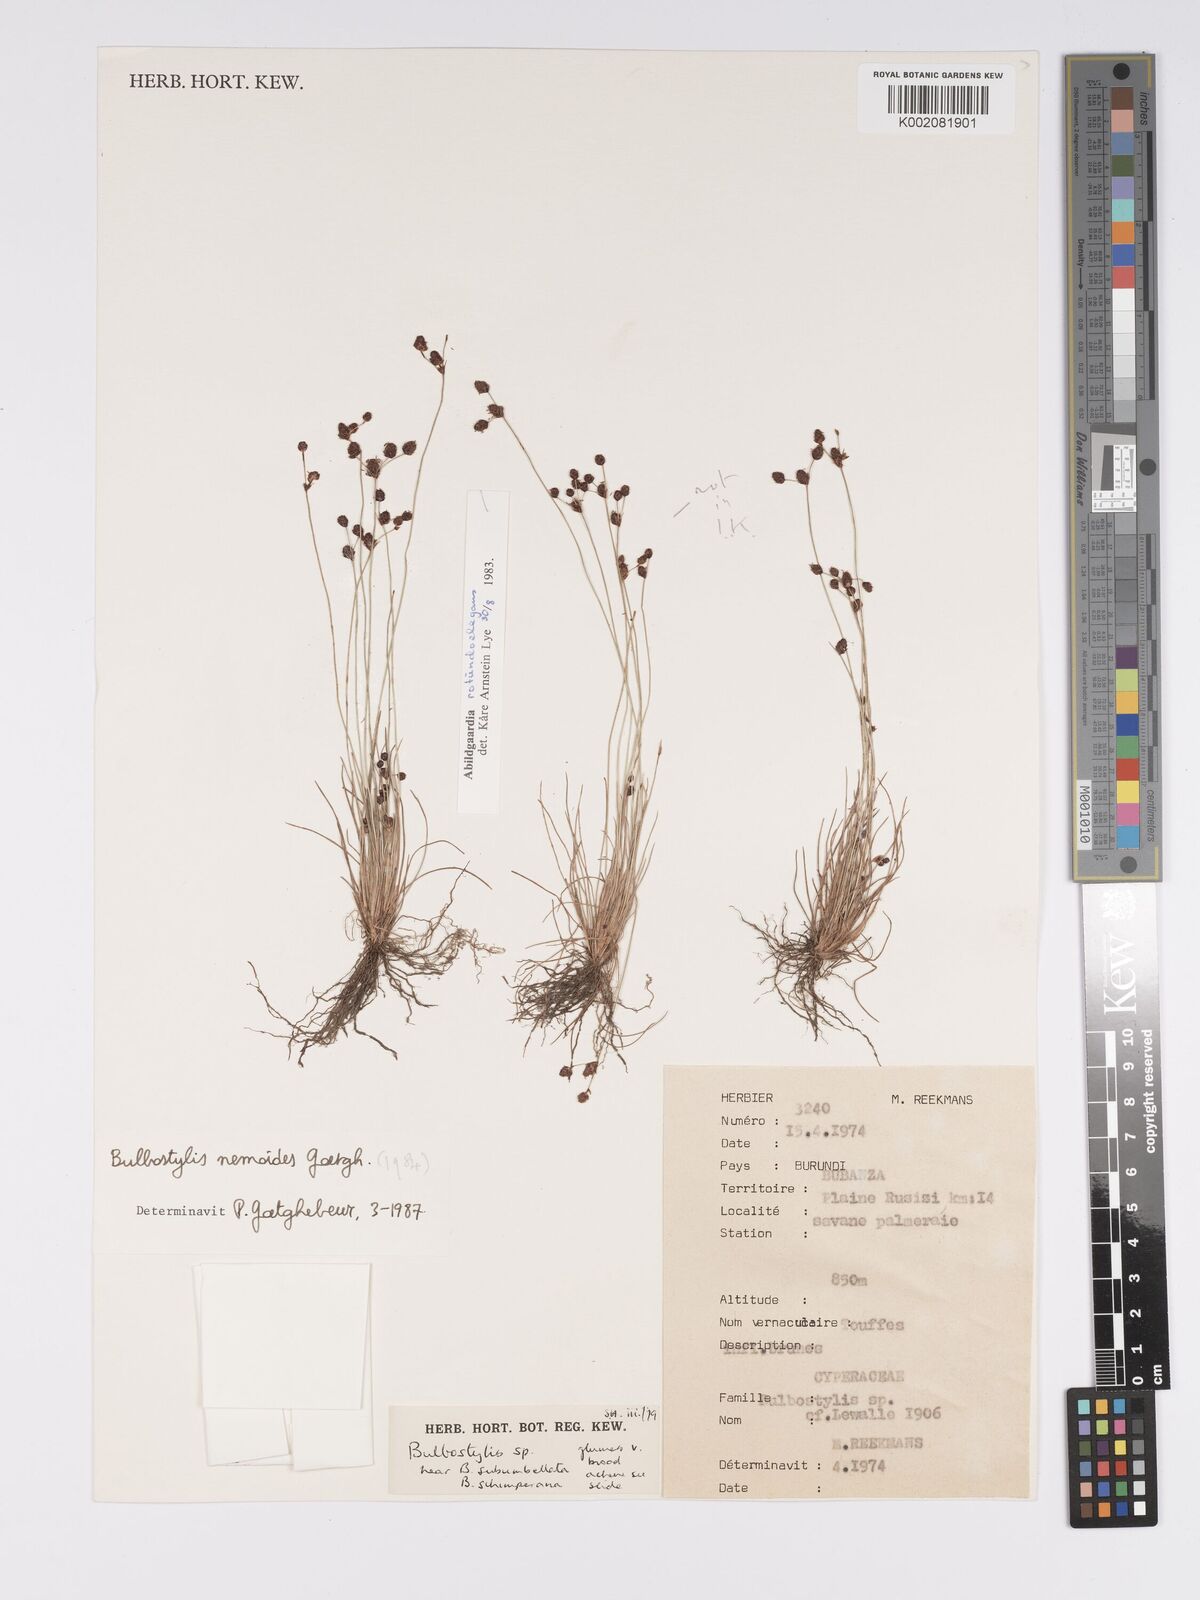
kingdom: Plantae
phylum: Tracheophyta
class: Liliopsida
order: Poales
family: Cyperaceae
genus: Bulbostylis
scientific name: Bulbostylis nemoides
